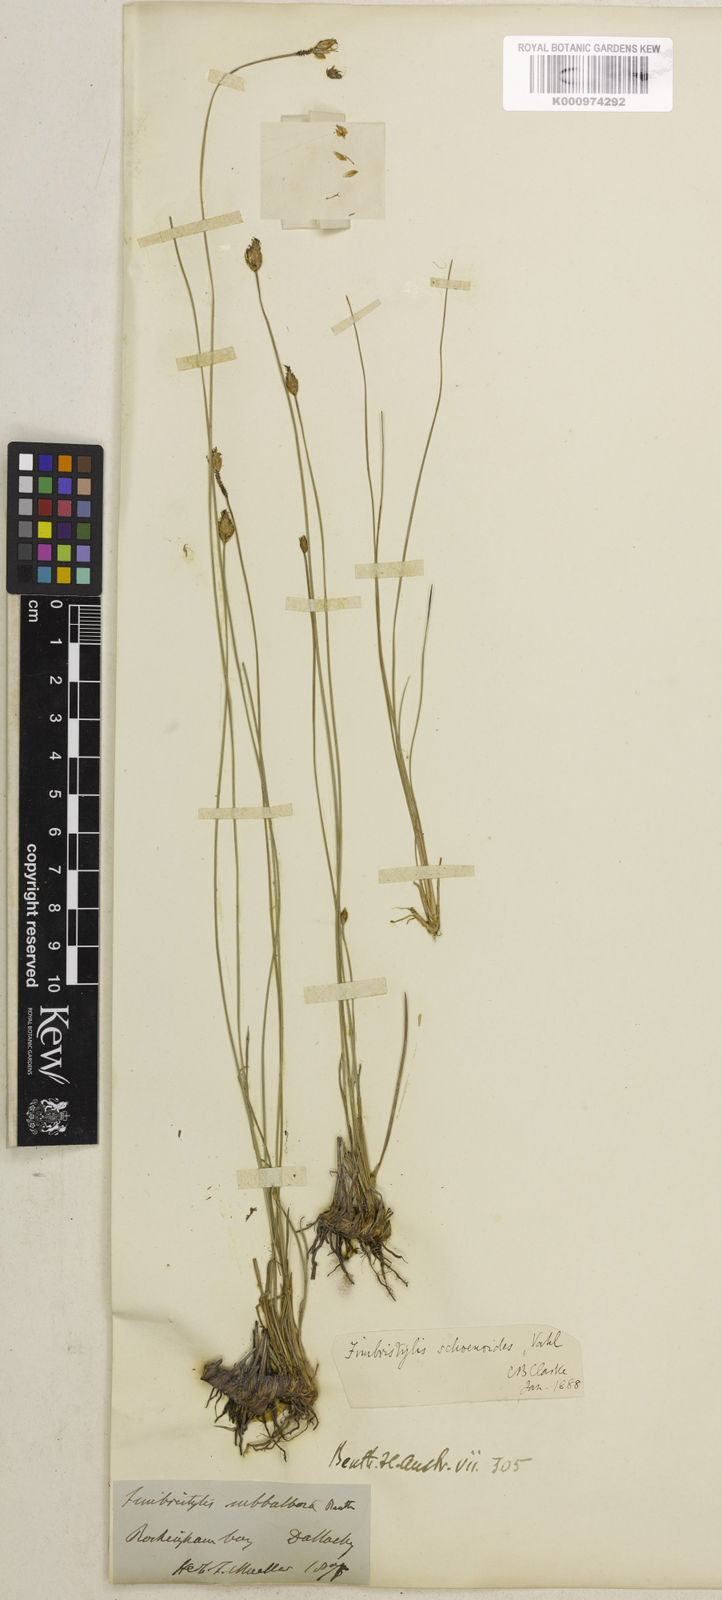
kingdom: Plantae
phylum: Tracheophyta
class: Liliopsida
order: Poales
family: Cyperaceae
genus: Fimbristylis
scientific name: Fimbristylis schoenoides
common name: Ditch fimbry
